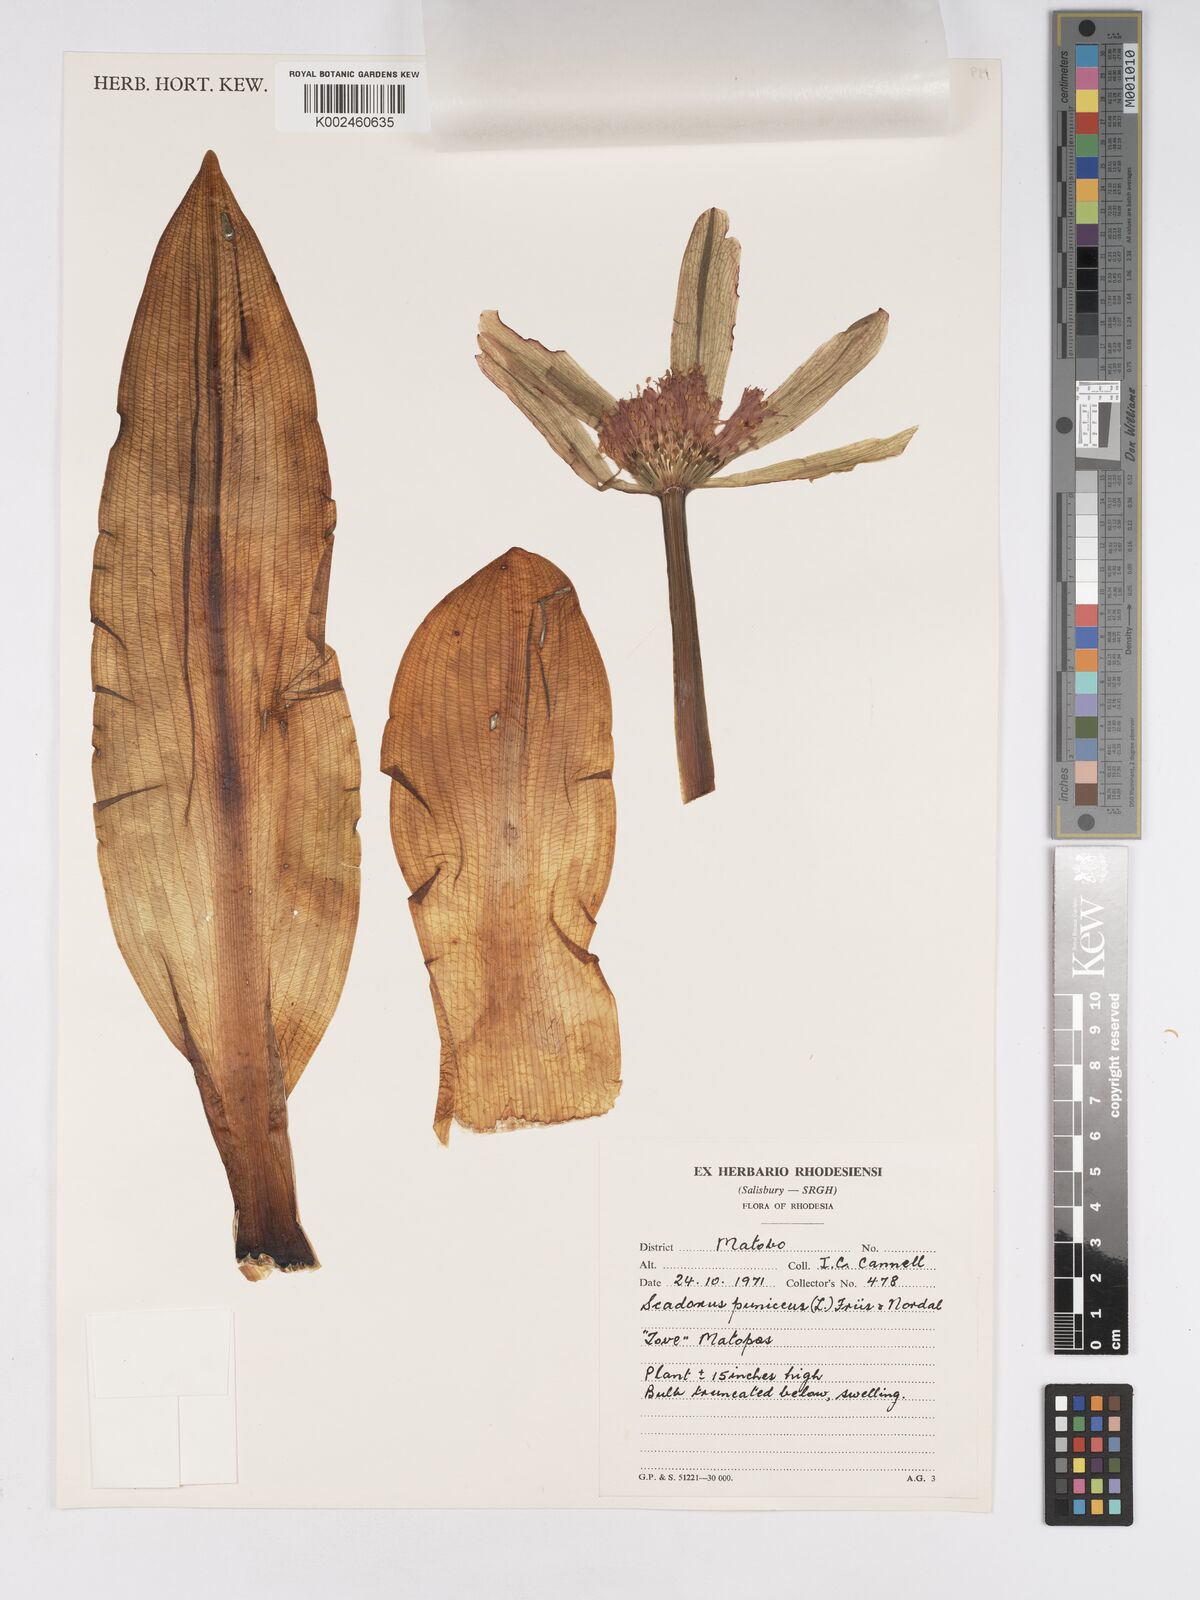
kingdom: Plantae
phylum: Tracheophyta
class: Liliopsida
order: Asparagales
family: Amaryllidaceae
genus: Scadoxus
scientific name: Scadoxus puniceus
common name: Royal-paintbrush
